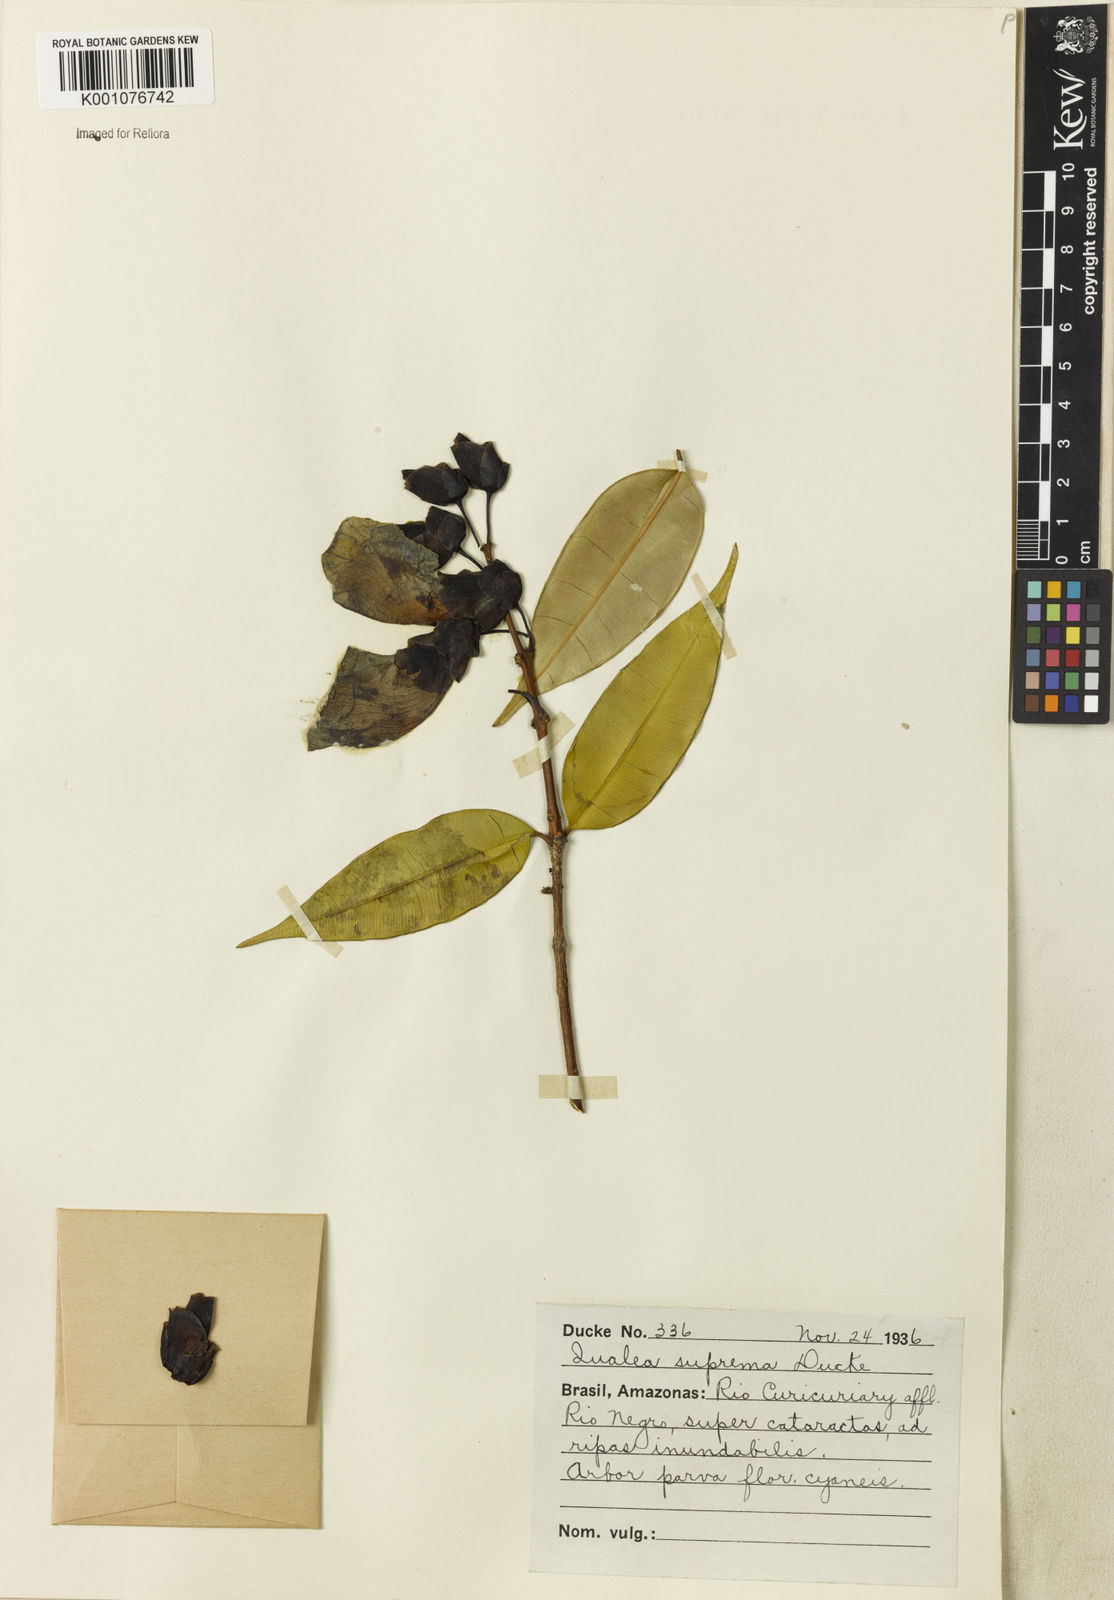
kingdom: Plantae
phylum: Tracheophyta
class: Magnoliopsida
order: Myrtales
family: Vochysiaceae
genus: Qualea
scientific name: Qualea suprema
